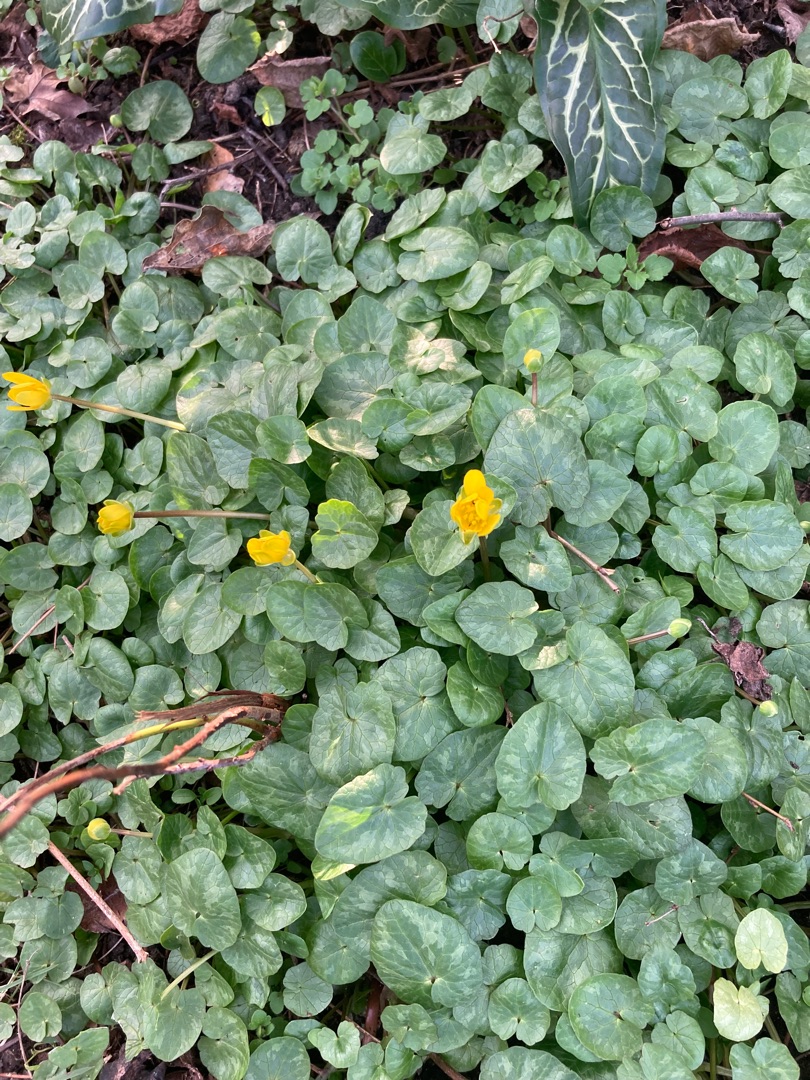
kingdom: Plantae
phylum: Tracheophyta
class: Magnoliopsida
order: Ranunculales
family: Ranunculaceae
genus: Ficaria
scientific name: Ficaria verna
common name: Vorterod
